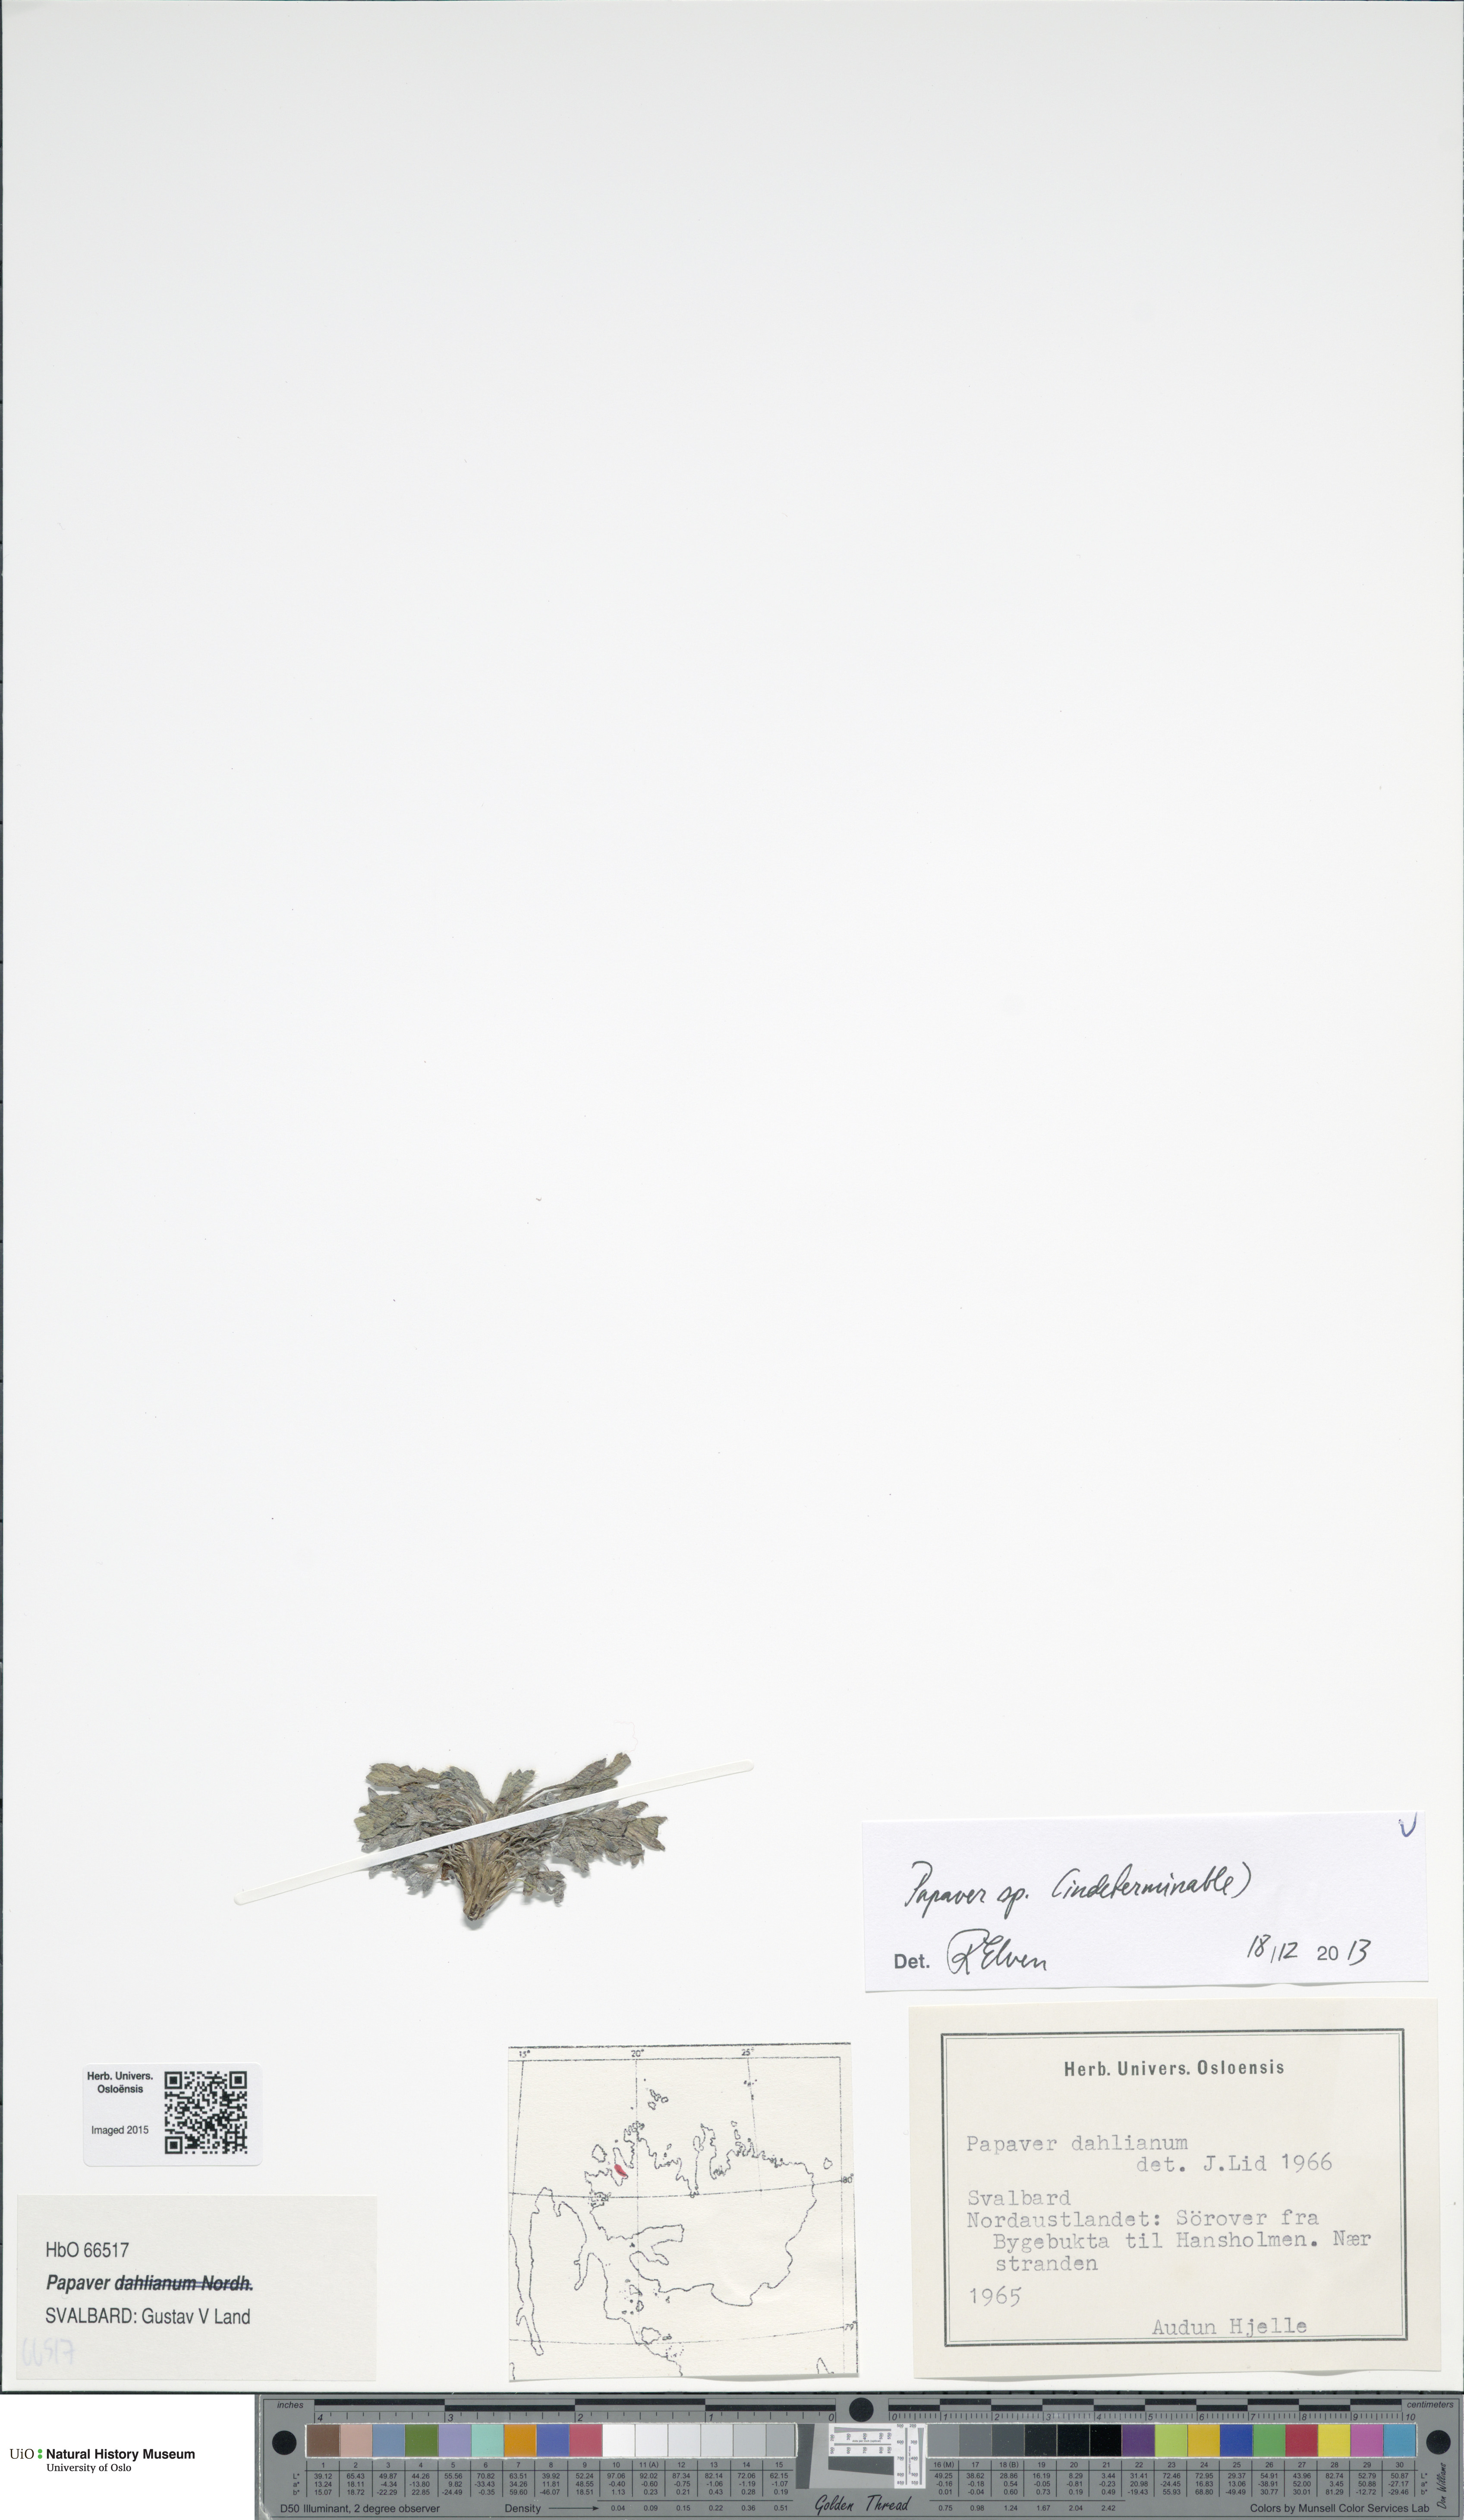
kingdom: Plantae
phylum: Tracheophyta
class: Magnoliopsida
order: Ranunculales
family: Papaveraceae
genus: Papaver
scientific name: Papaver
